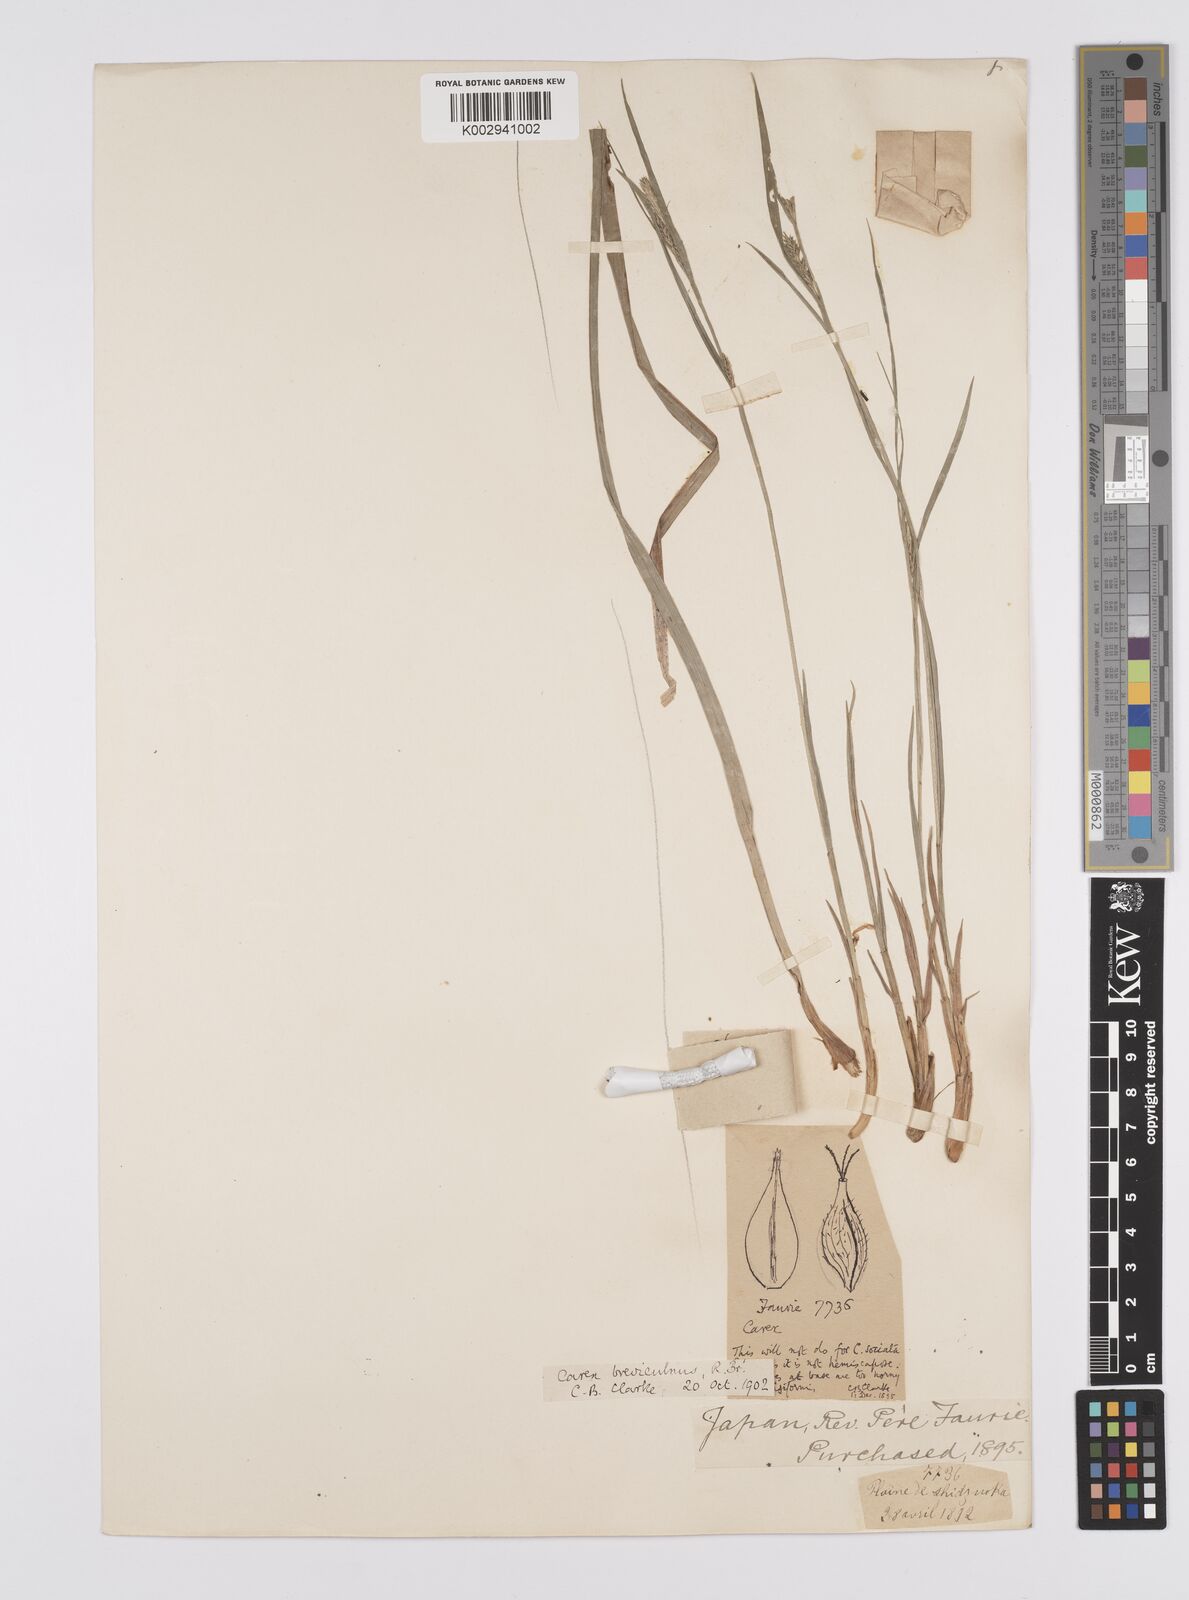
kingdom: Plantae
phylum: Tracheophyta
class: Liliopsida
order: Poales
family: Cyperaceae
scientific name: Cyperaceae
